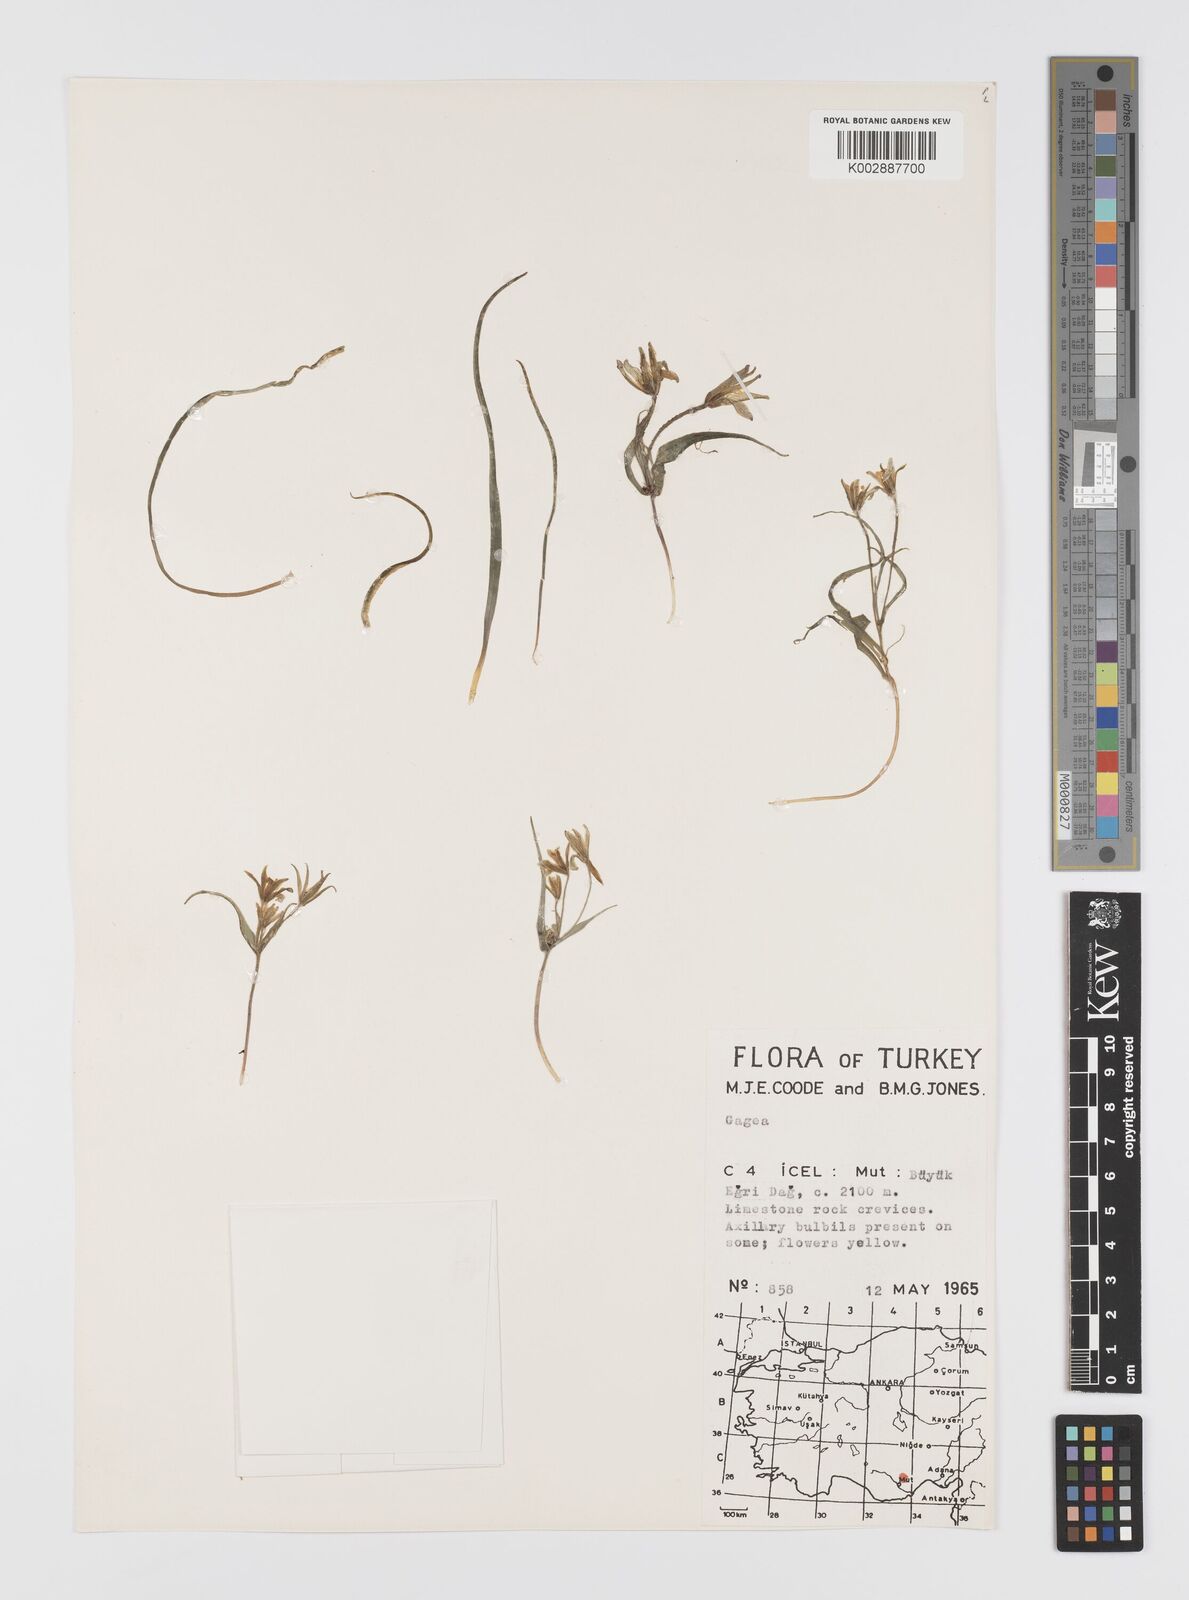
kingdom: Plantae
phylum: Tracheophyta
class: Liliopsida
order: Liliales
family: Liliaceae
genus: Gagea
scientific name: Gagea granatellii
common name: Granatelli’s gagea
